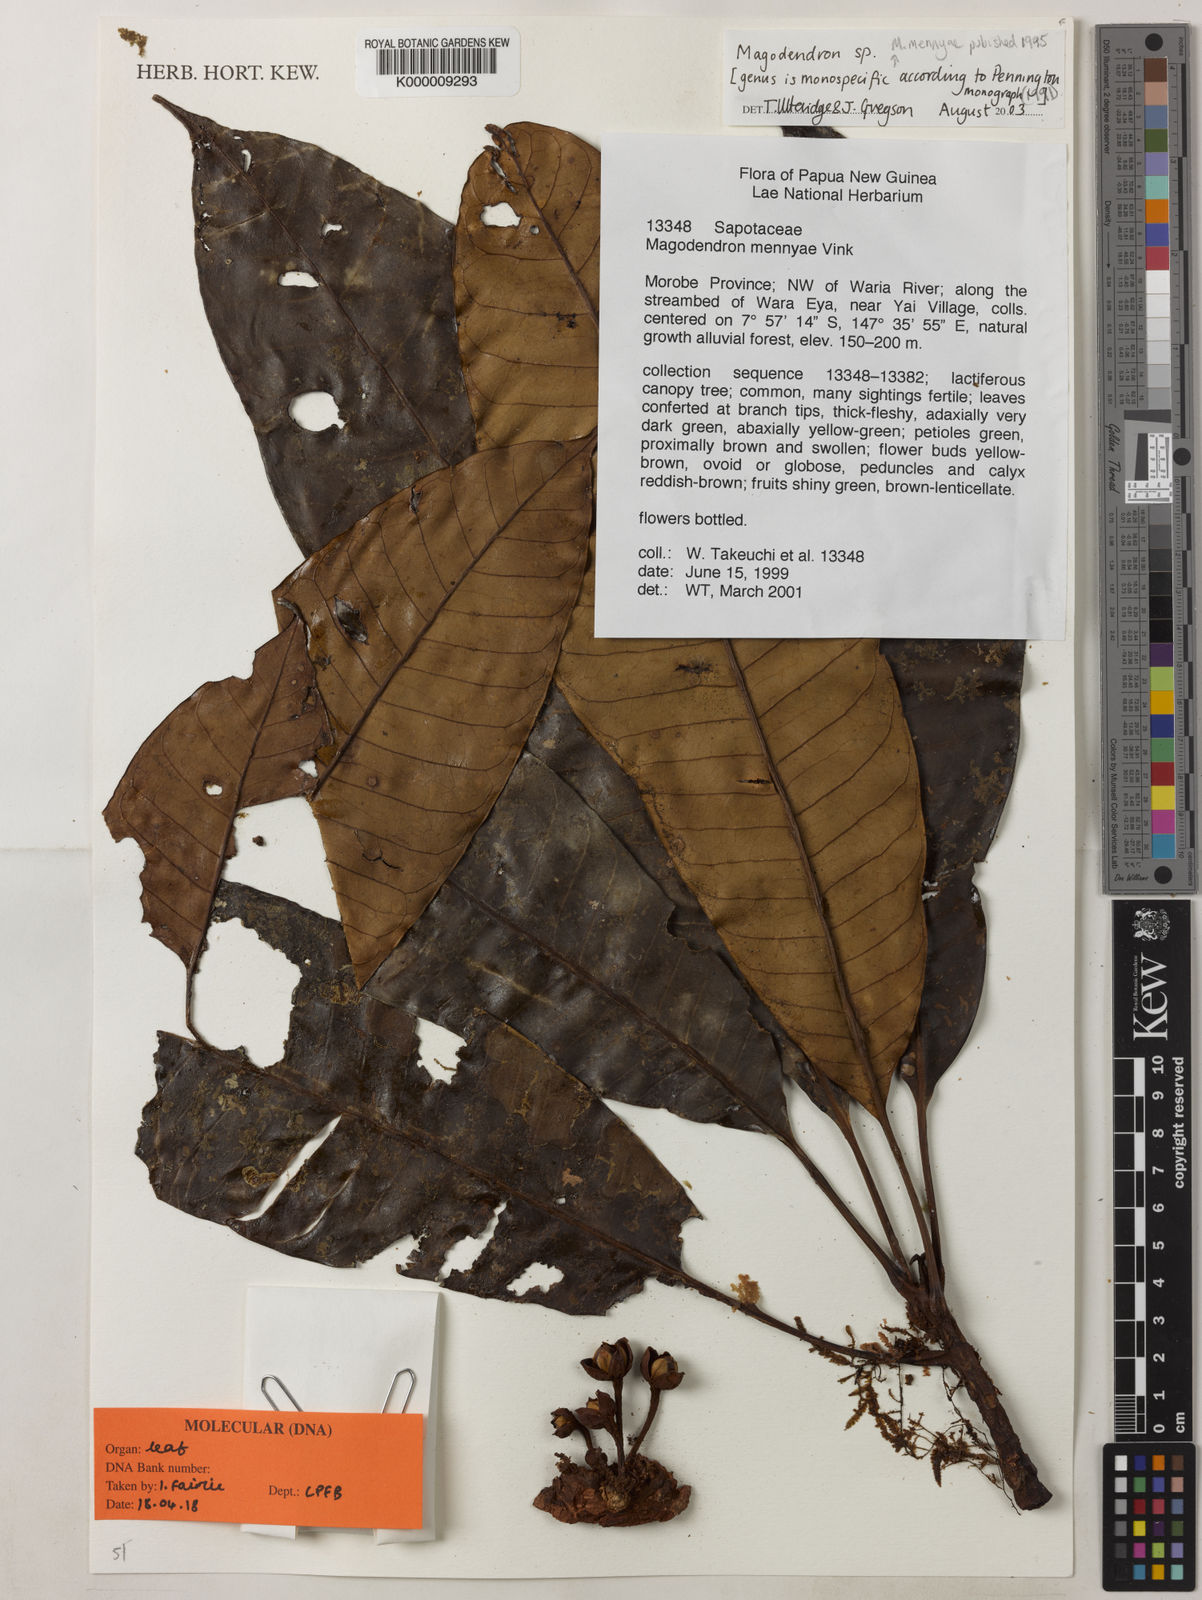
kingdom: Plantae
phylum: Tracheophyta
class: Magnoliopsida
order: Ericales
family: Sapotaceae
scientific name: Sapotaceae
